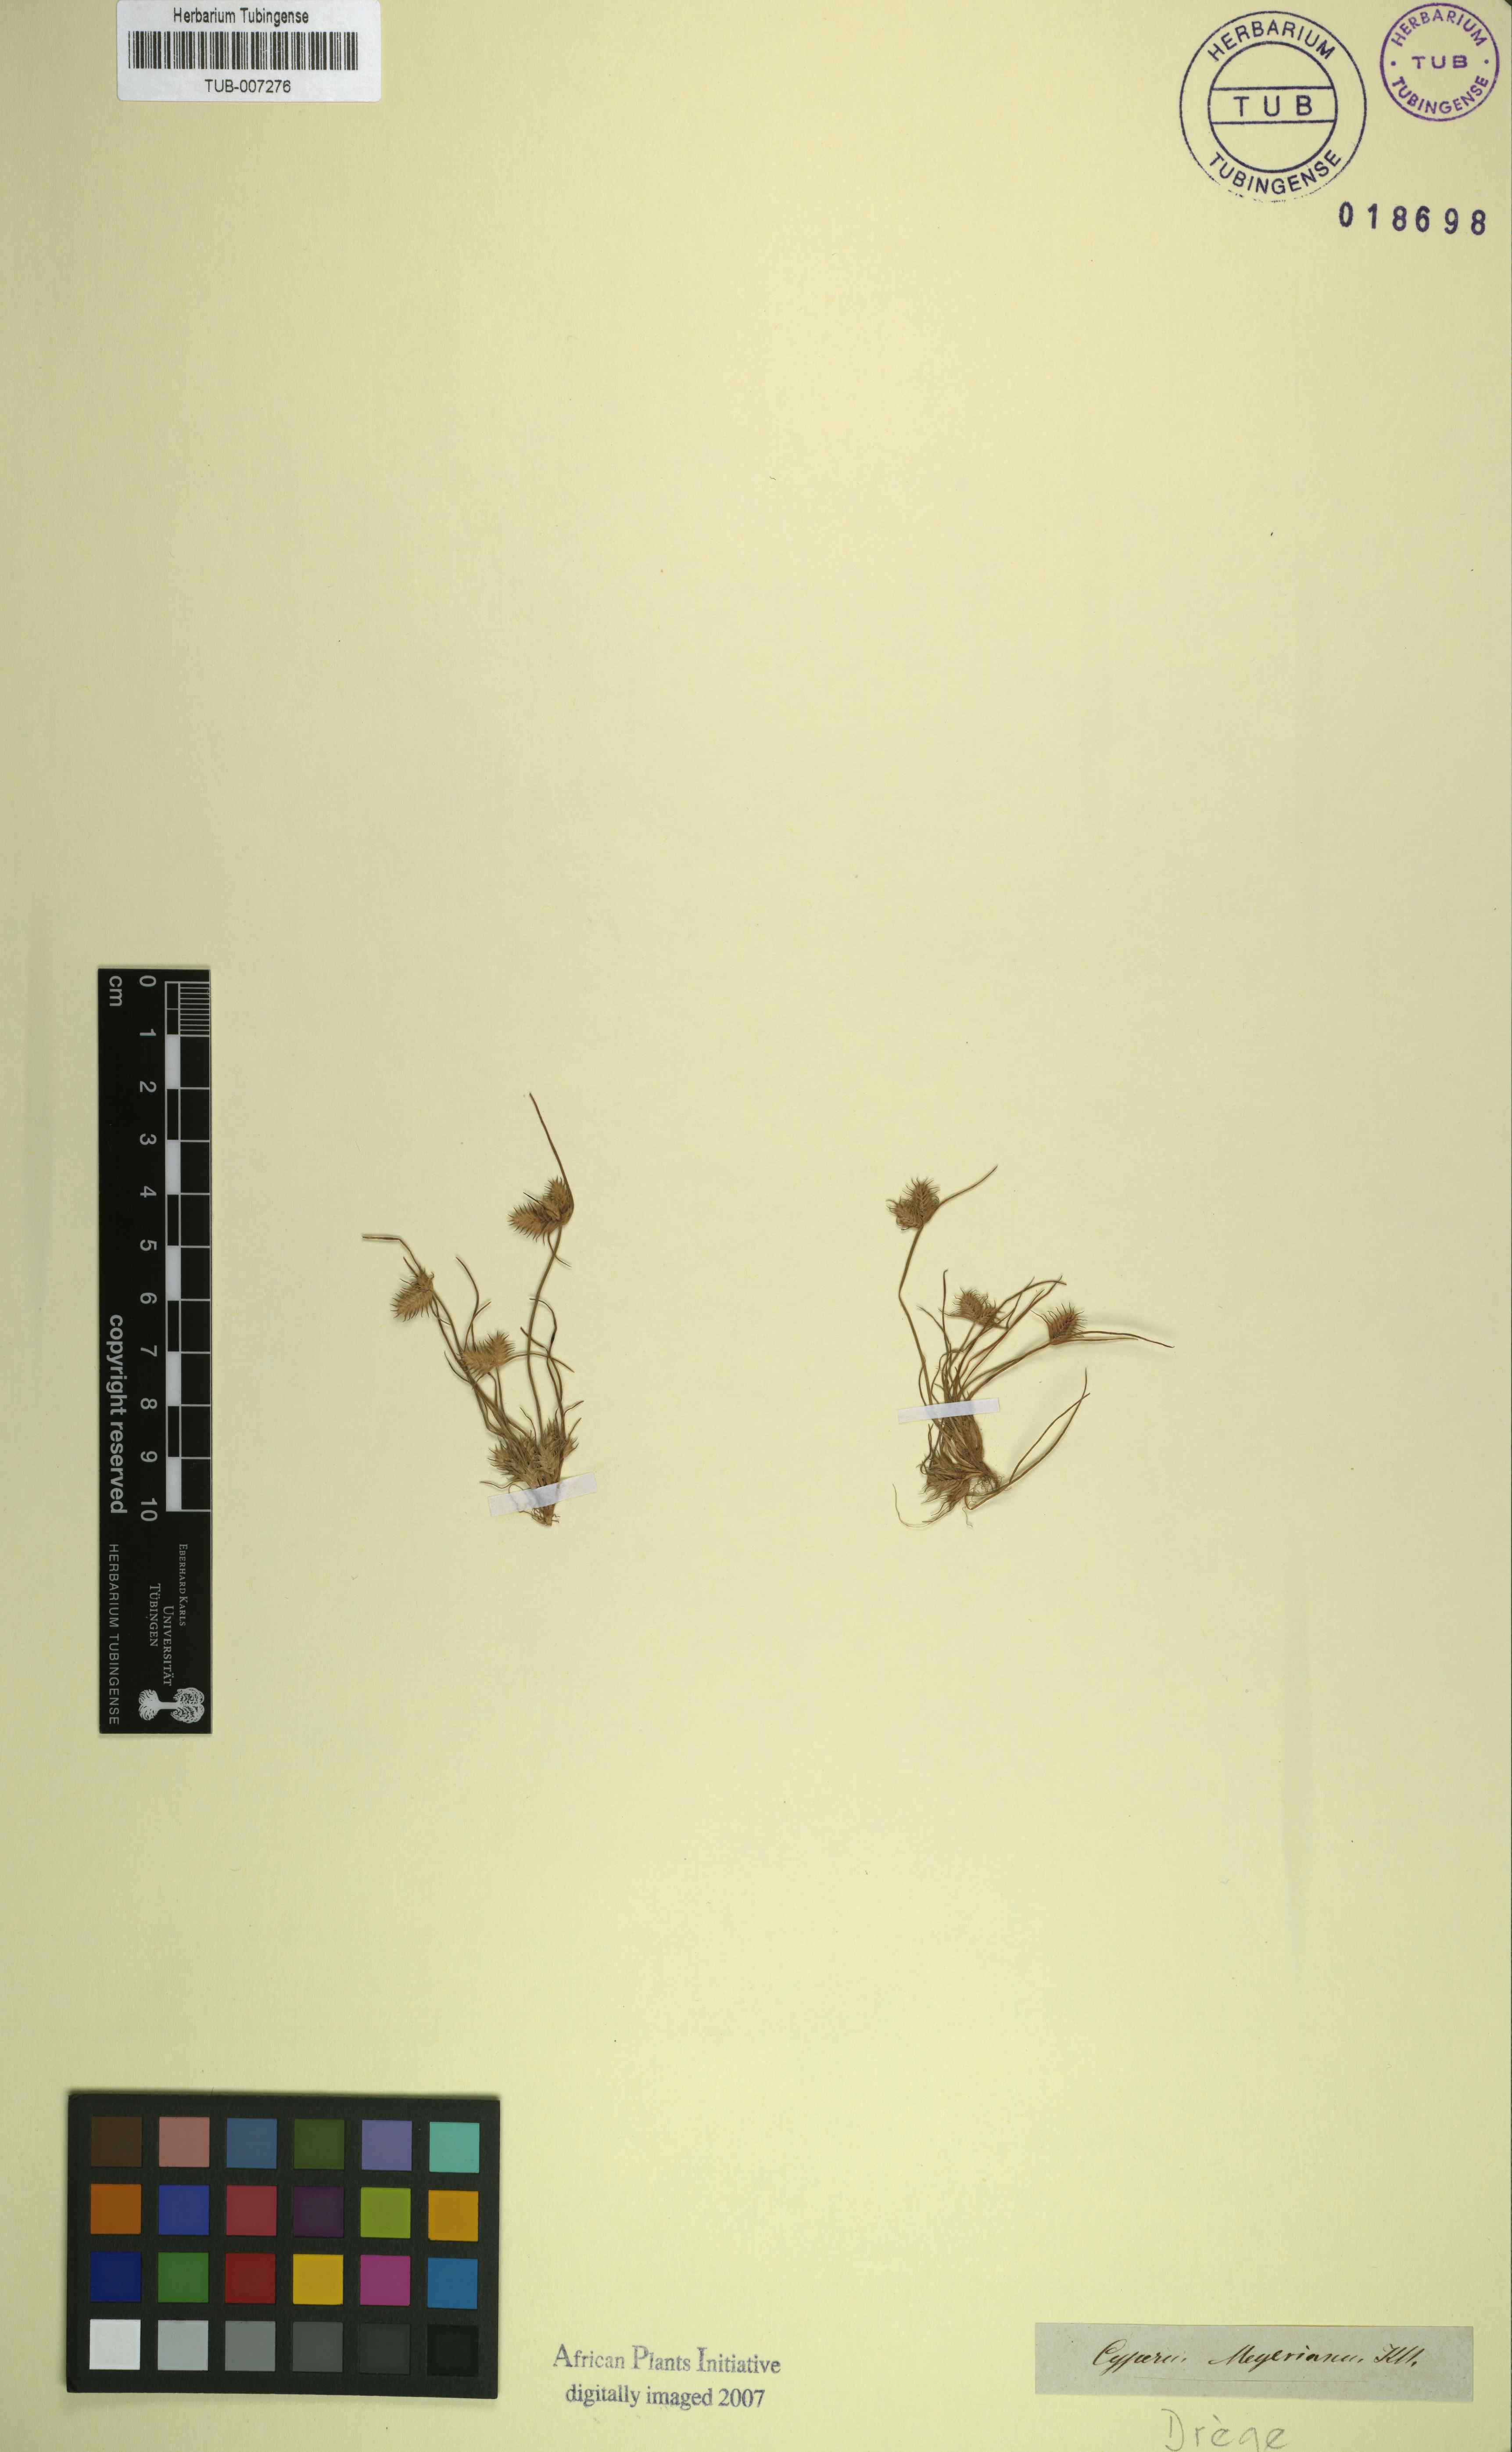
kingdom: Plantae
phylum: Tracheophyta
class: Liliopsida
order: Poales
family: Cyperaceae
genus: Cyperus
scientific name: Cyperus meyerianus
